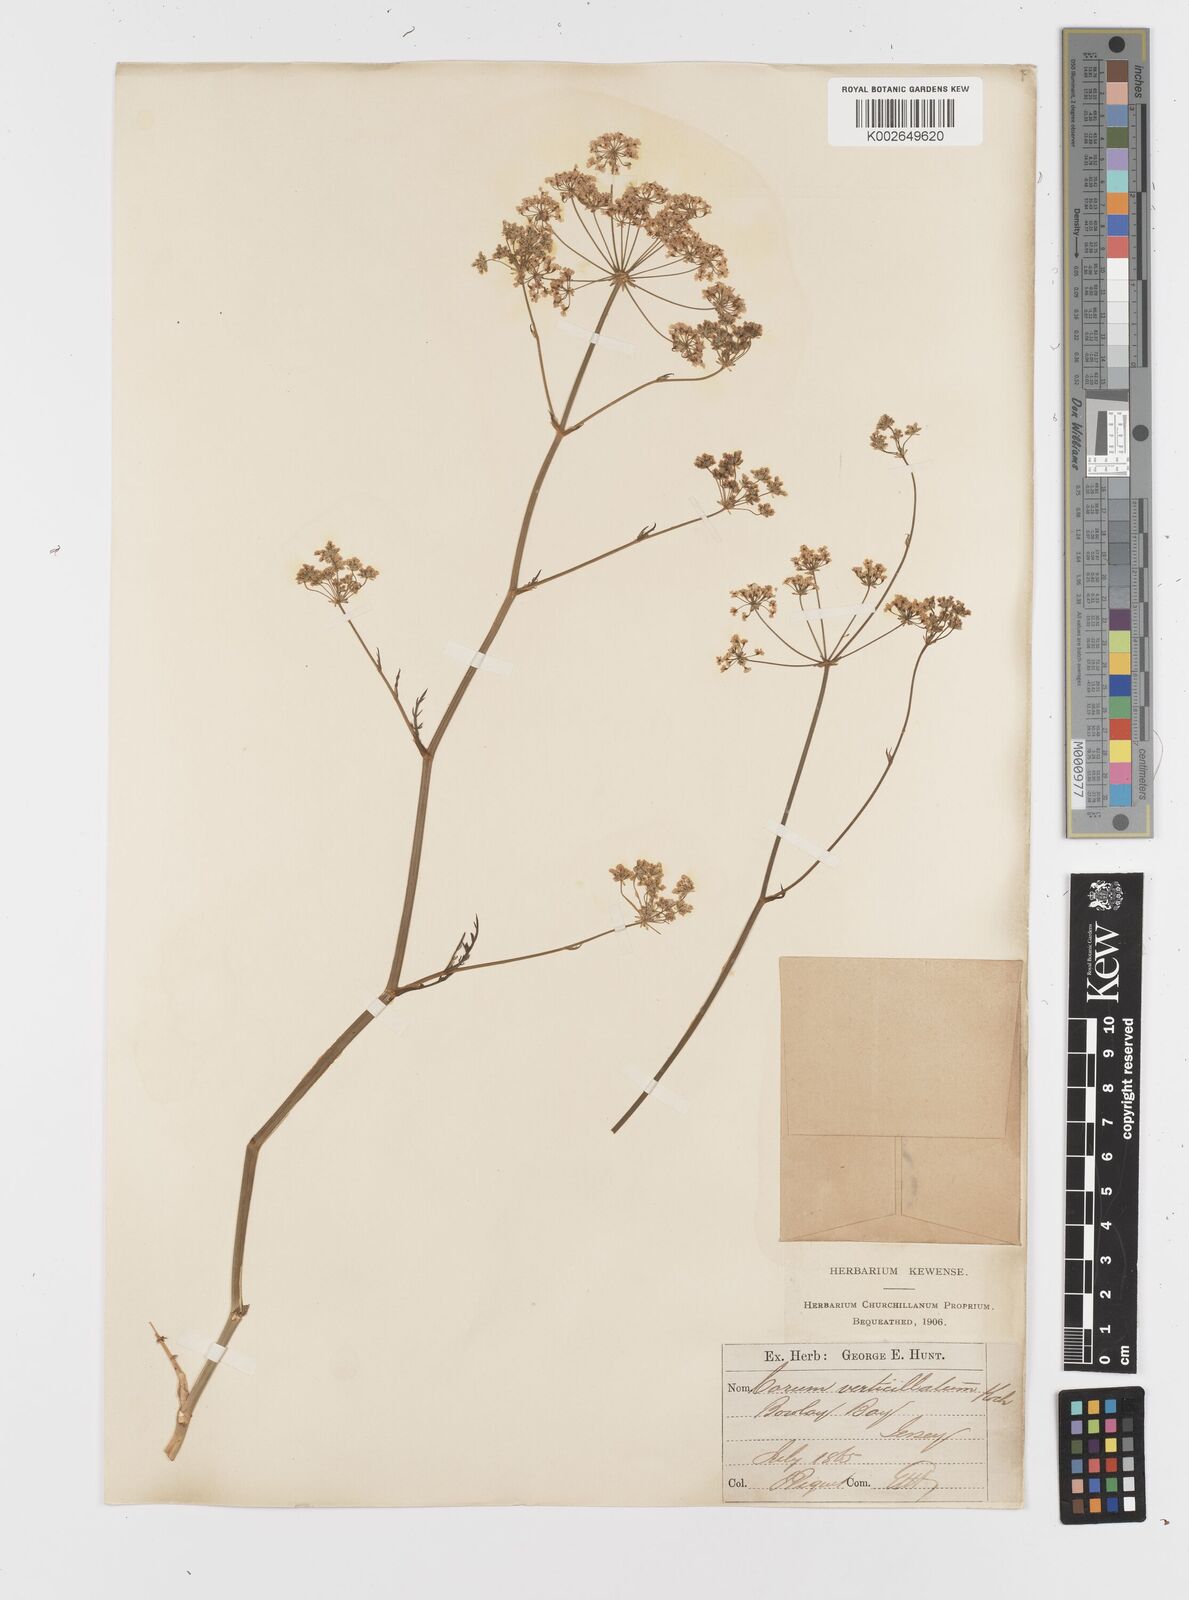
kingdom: Plantae
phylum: Tracheophyta
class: Magnoliopsida
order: Apiales
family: Apiaceae
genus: Trocdaris
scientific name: Trocdaris verticillatum
